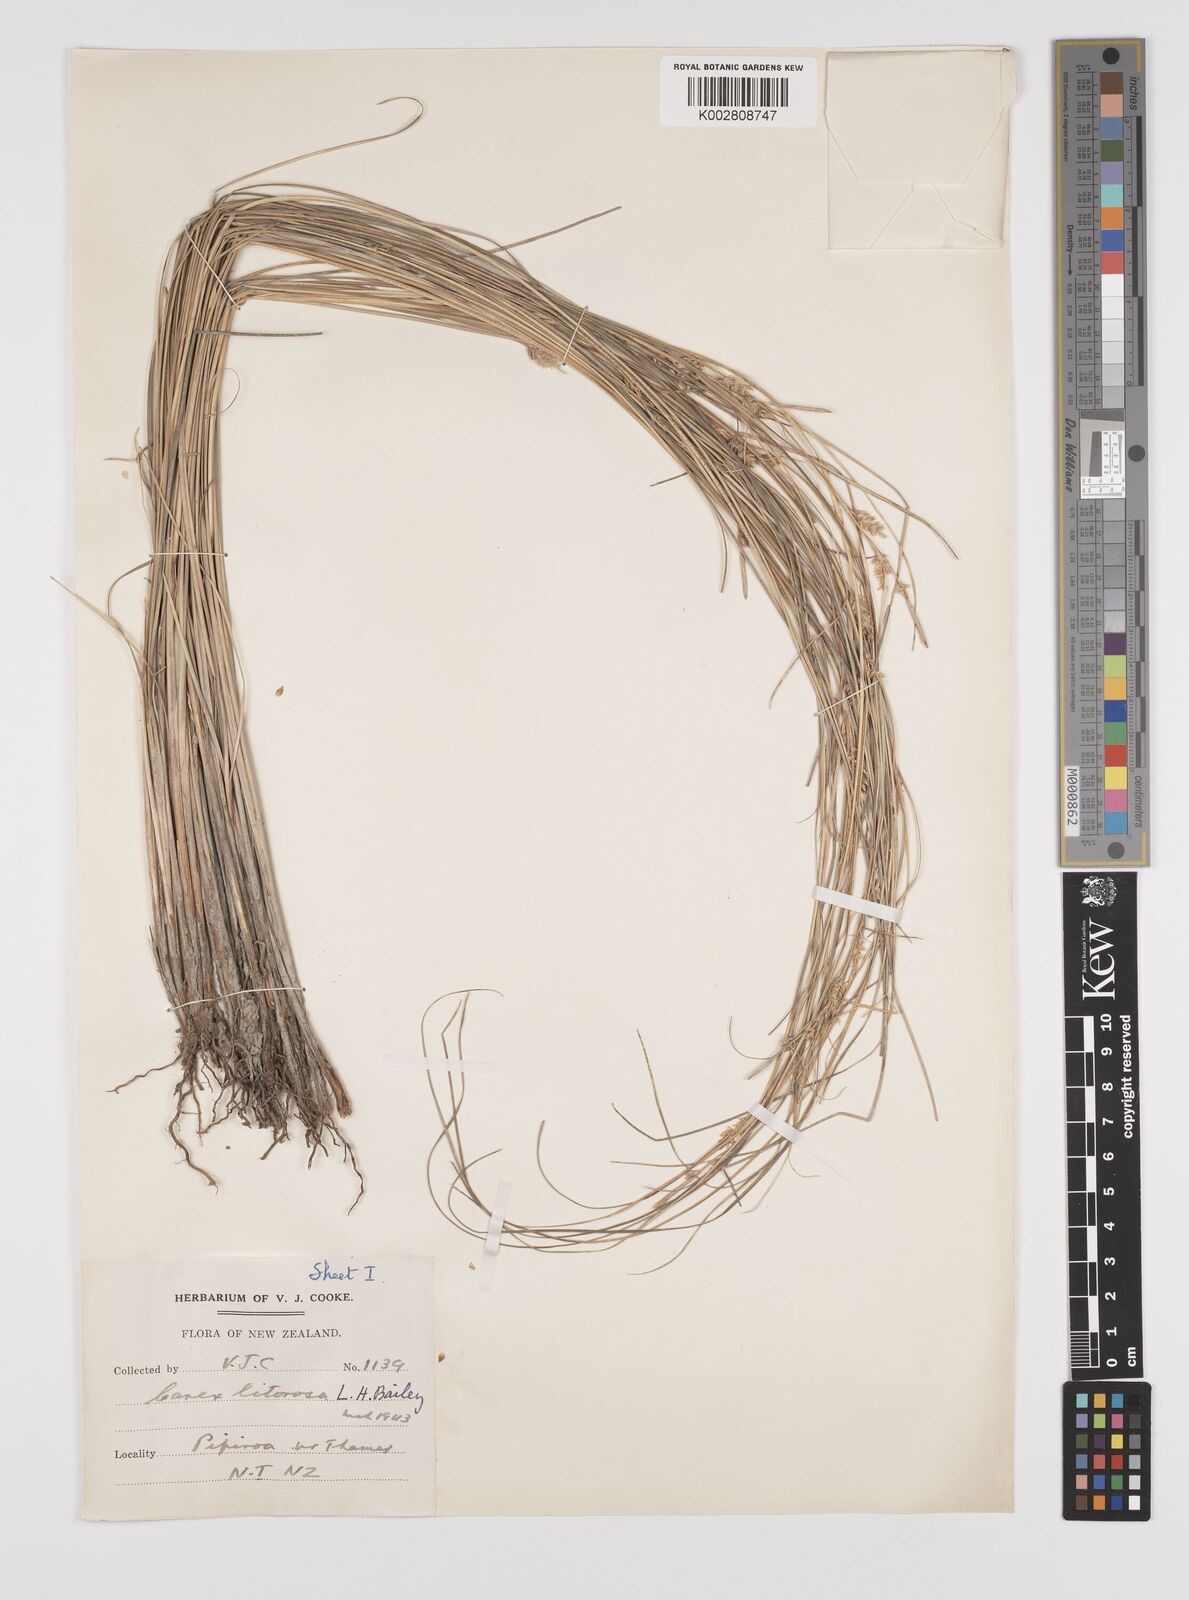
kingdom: Plantae
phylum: Tracheophyta
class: Liliopsida
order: Poales
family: Cyperaceae
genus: Carex
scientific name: Carex litorosa
